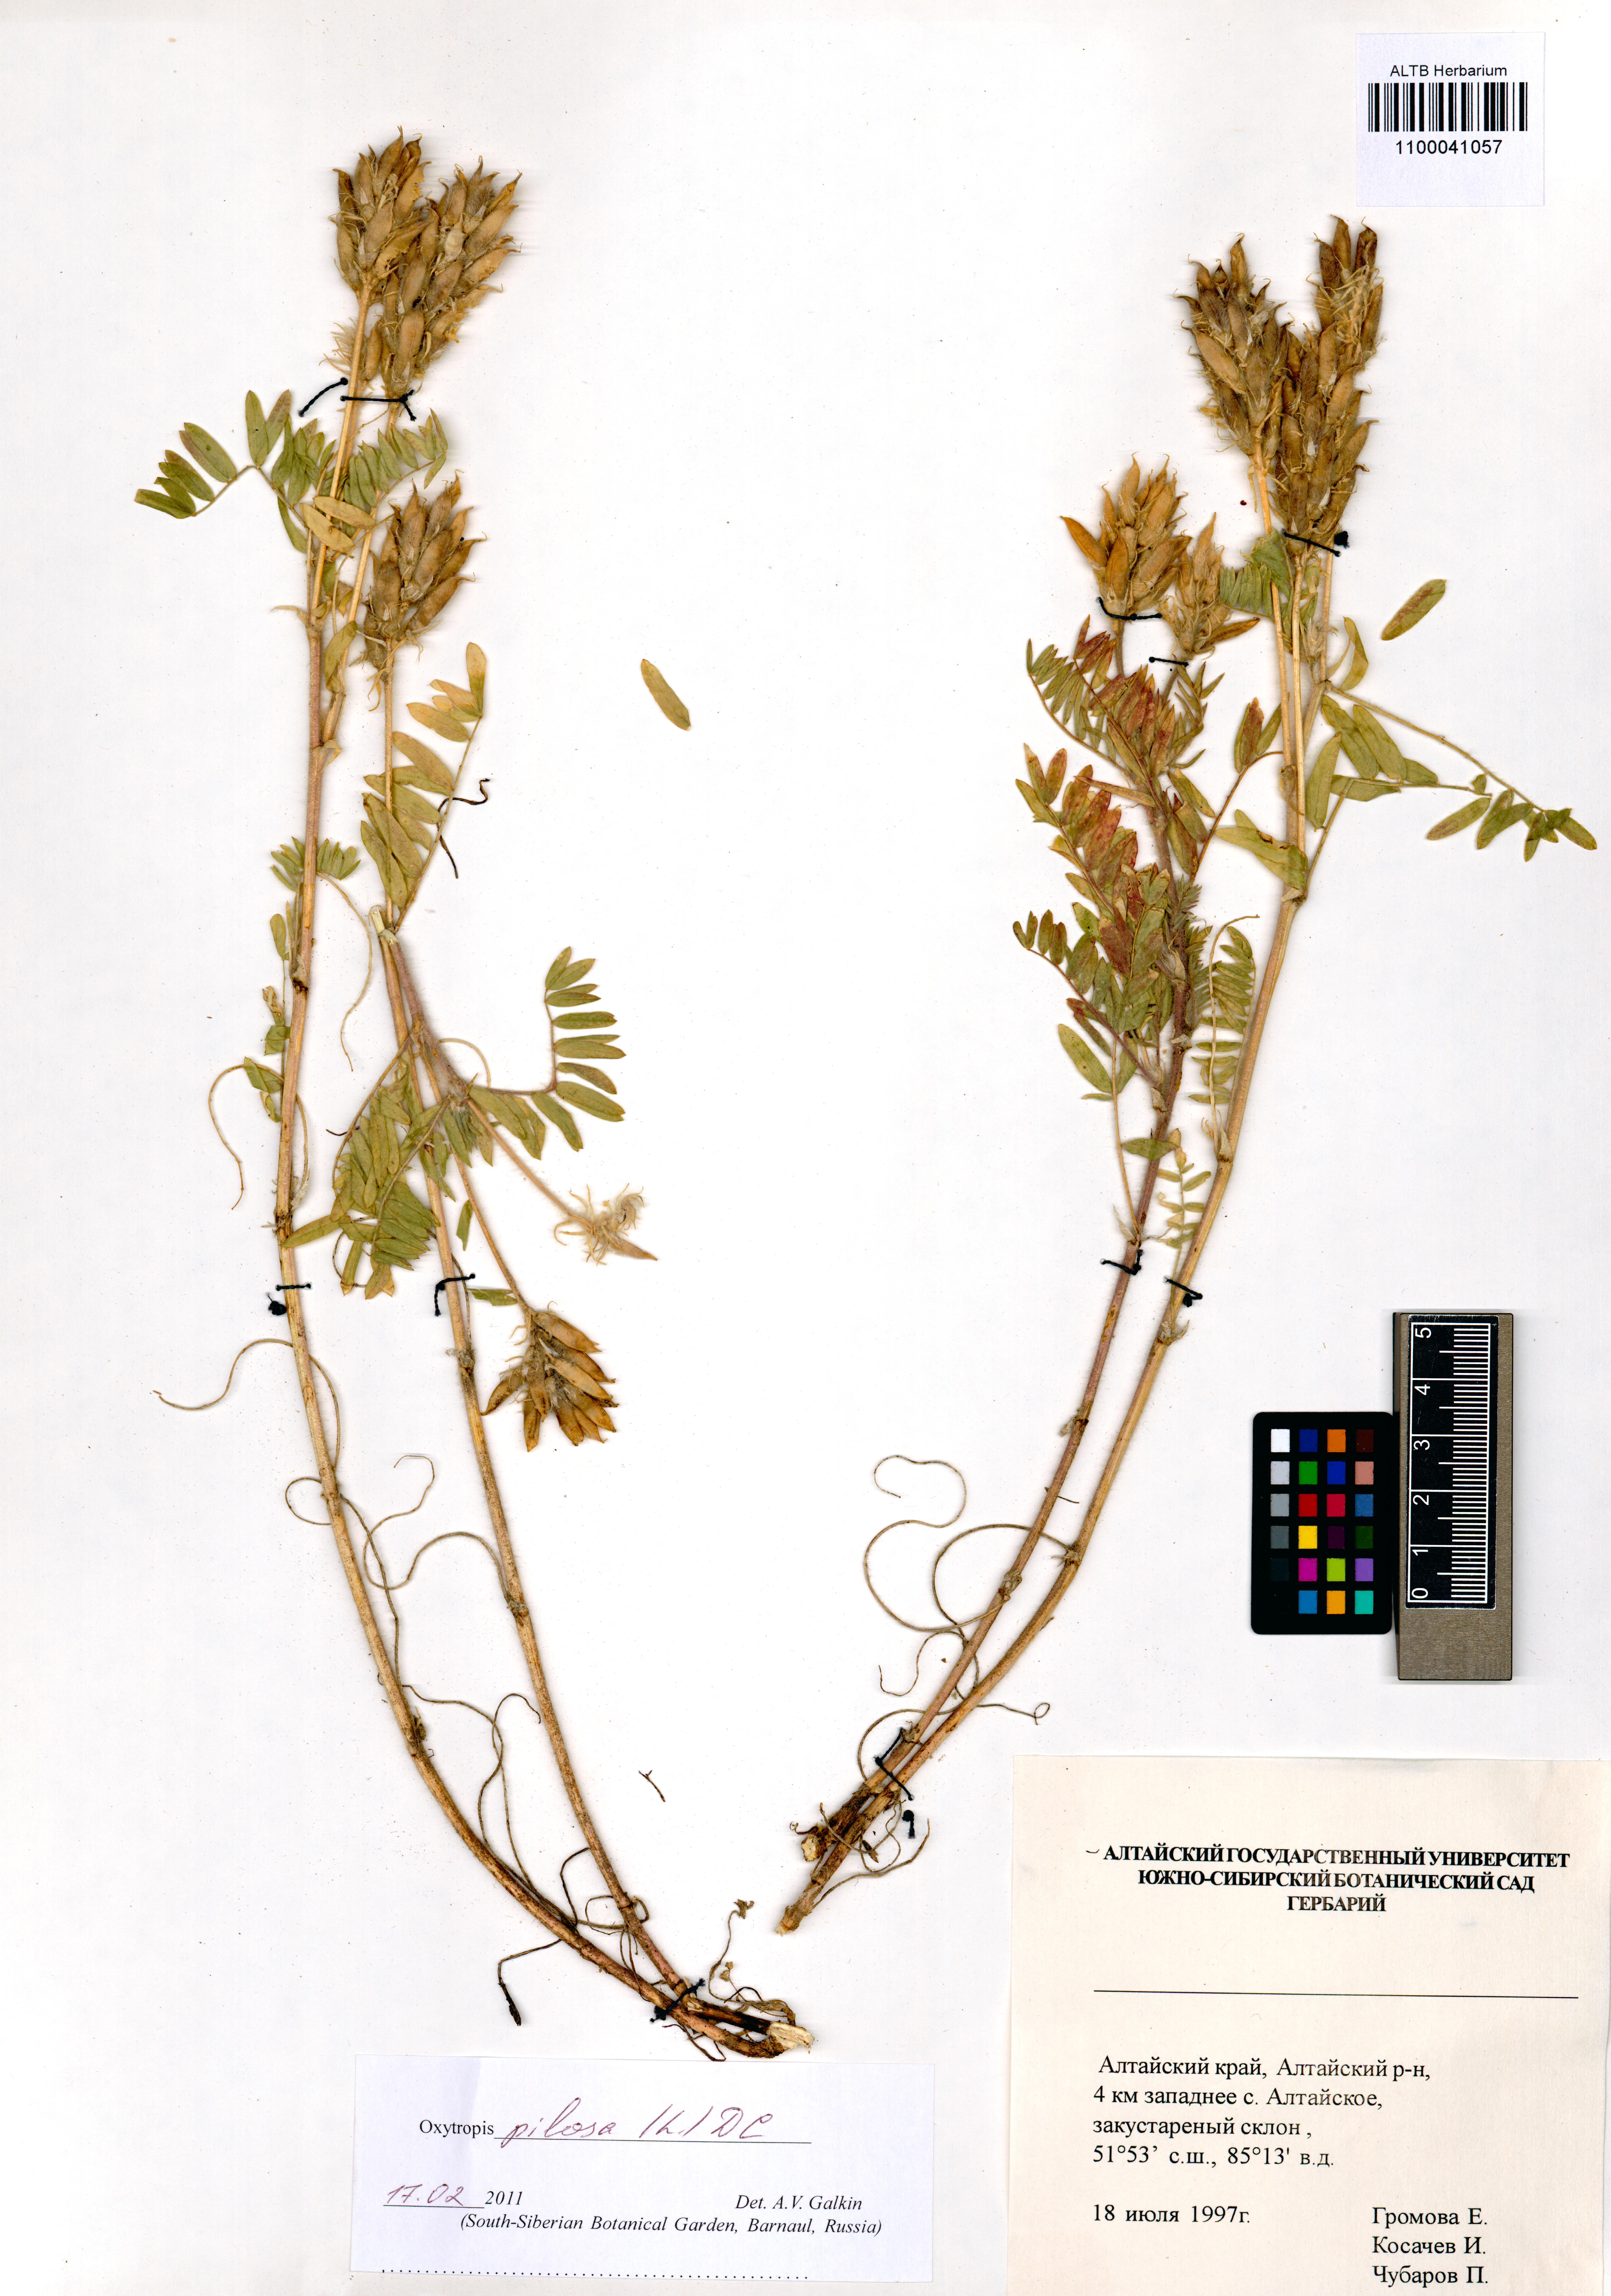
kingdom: Plantae
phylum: Tracheophyta
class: Magnoliopsida
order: Fabales
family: Fabaceae
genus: Oxytropis
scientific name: Oxytropis pilosa
